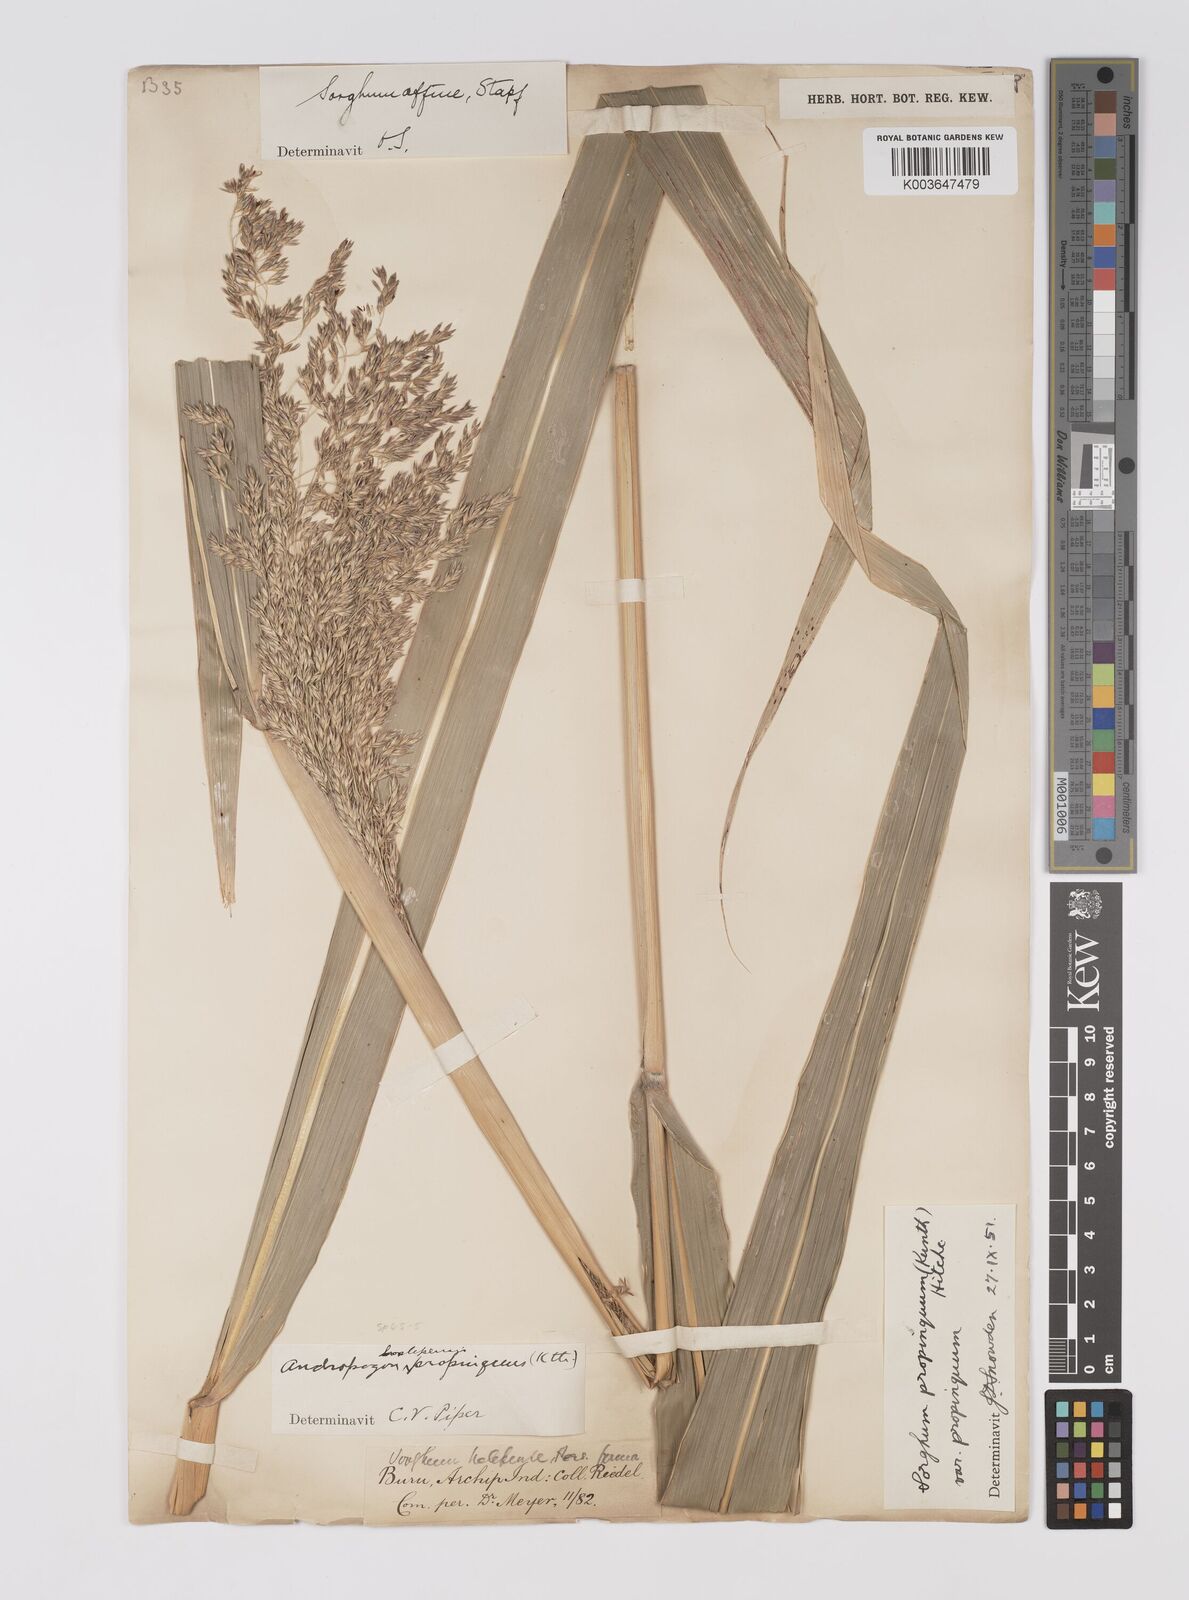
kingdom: Plantae
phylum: Tracheophyta
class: Liliopsida
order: Poales
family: Poaceae
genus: Sorghum
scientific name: Sorghum propinquum
